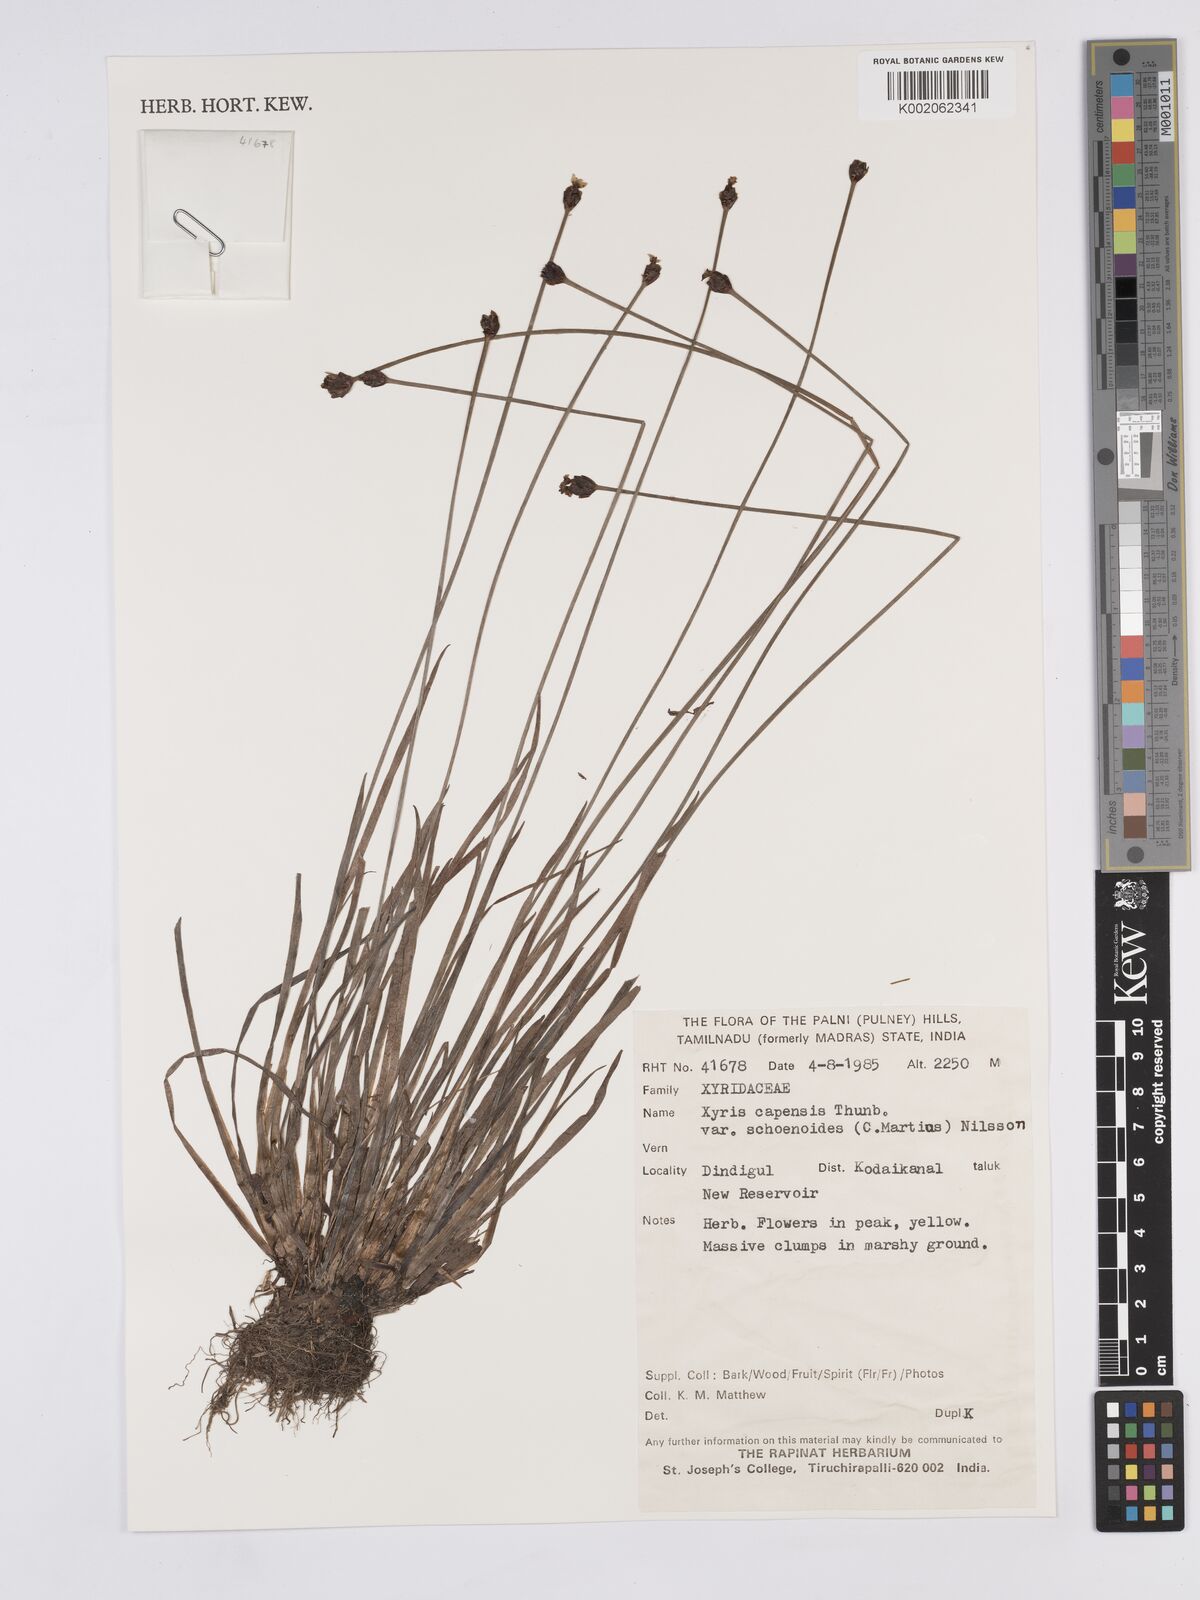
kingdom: Plantae
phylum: Tracheophyta
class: Liliopsida
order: Poales
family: Xyridaceae
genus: Xyris
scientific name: Xyris capensis
